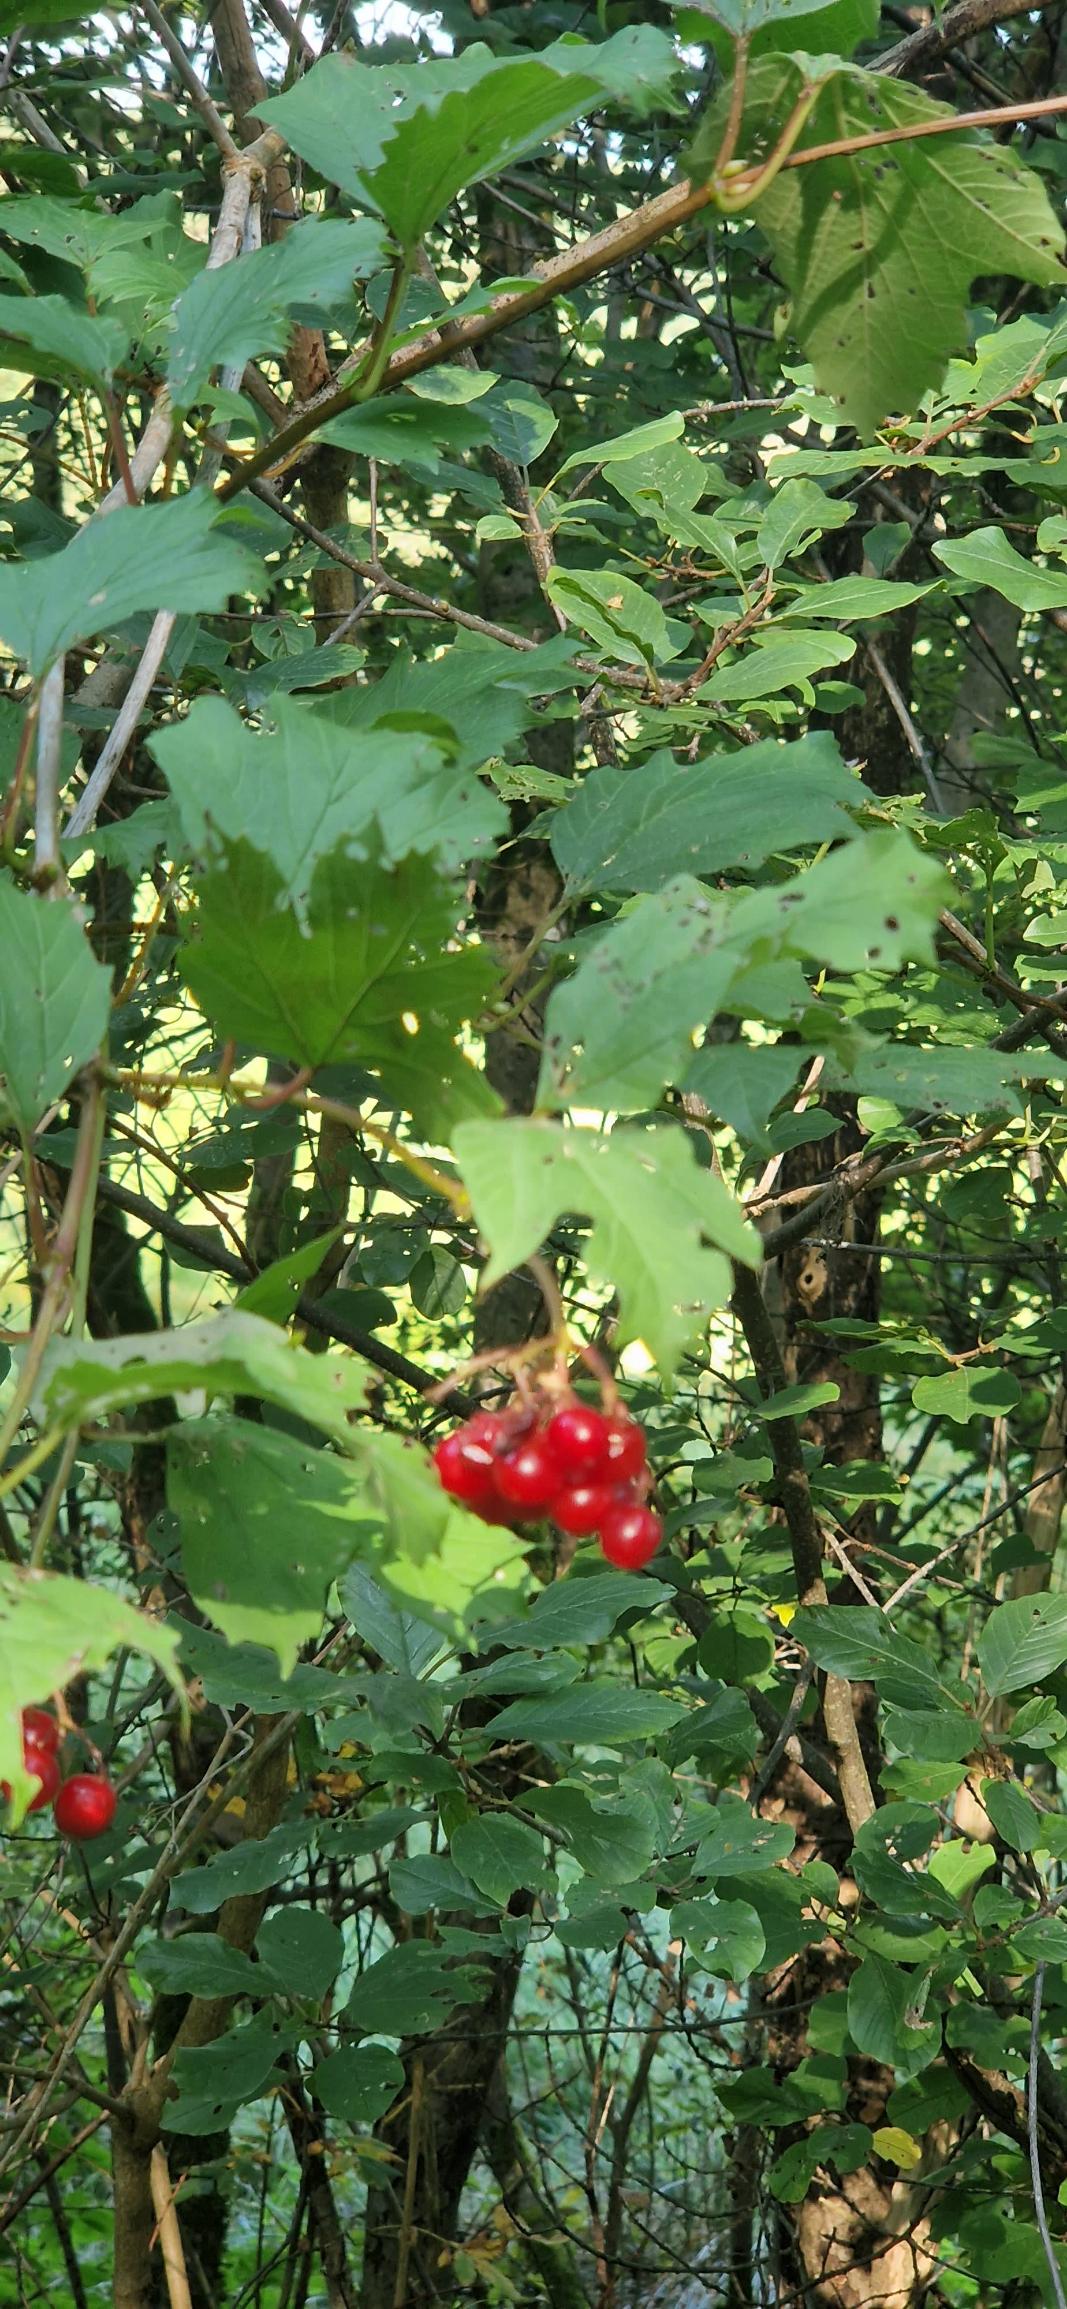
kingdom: Plantae
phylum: Tracheophyta
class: Magnoliopsida
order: Dipsacales
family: Viburnaceae
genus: Viburnum
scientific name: Viburnum opulus
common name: Kvalkved
